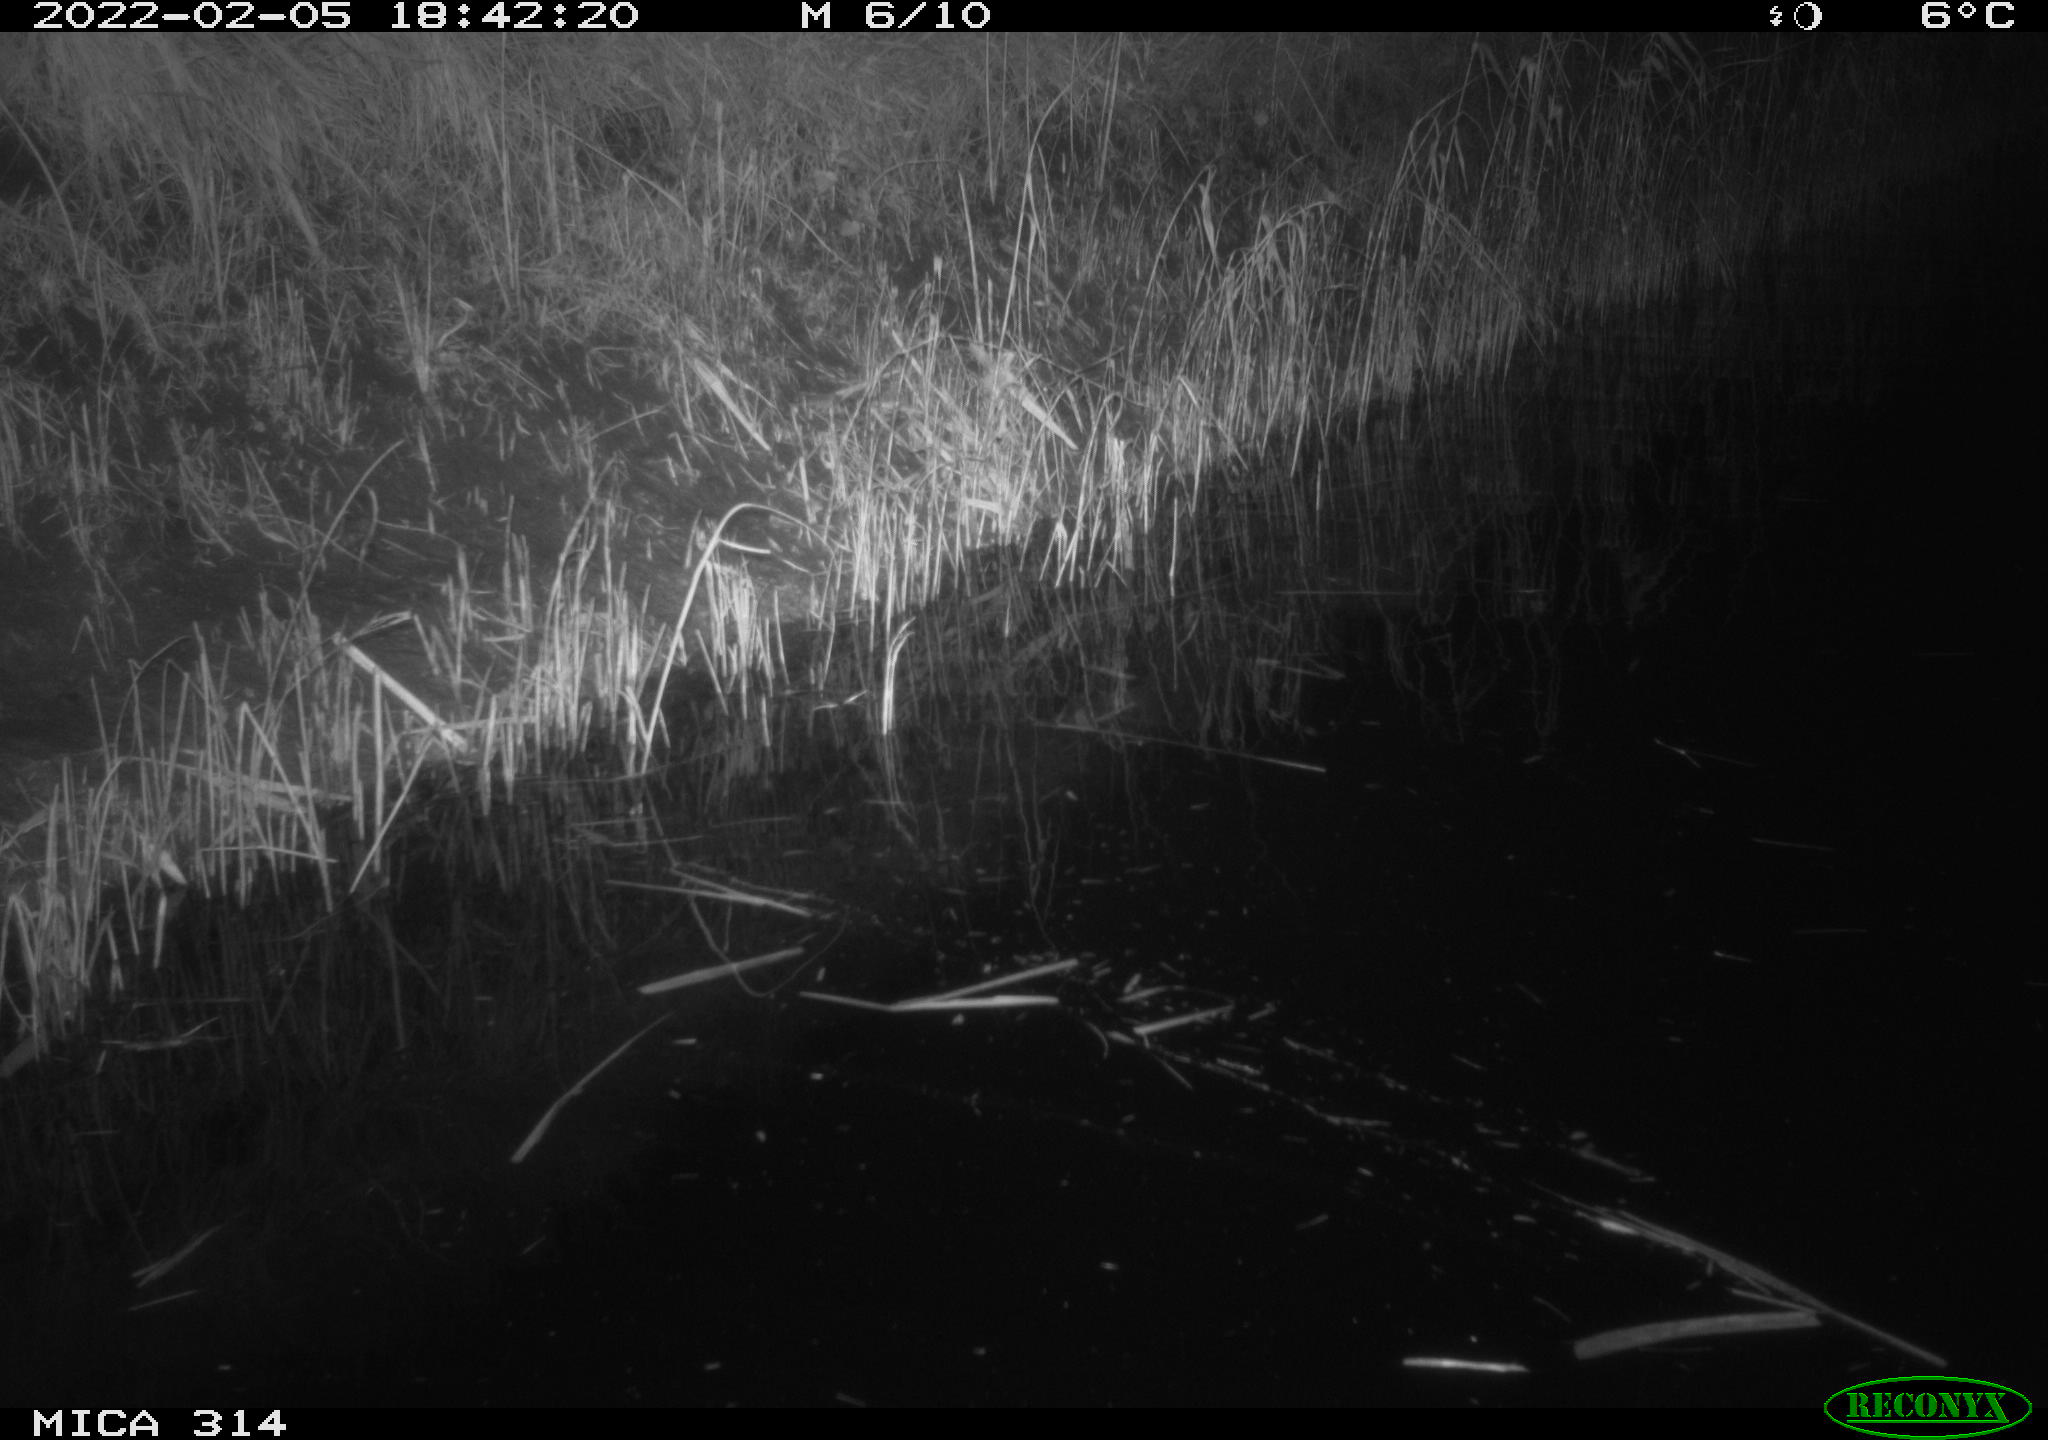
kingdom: Animalia
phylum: Chordata
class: Mammalia
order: Rodentia
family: Muridae
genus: Rattus
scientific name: Rattus norvegicus
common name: Brown rat
